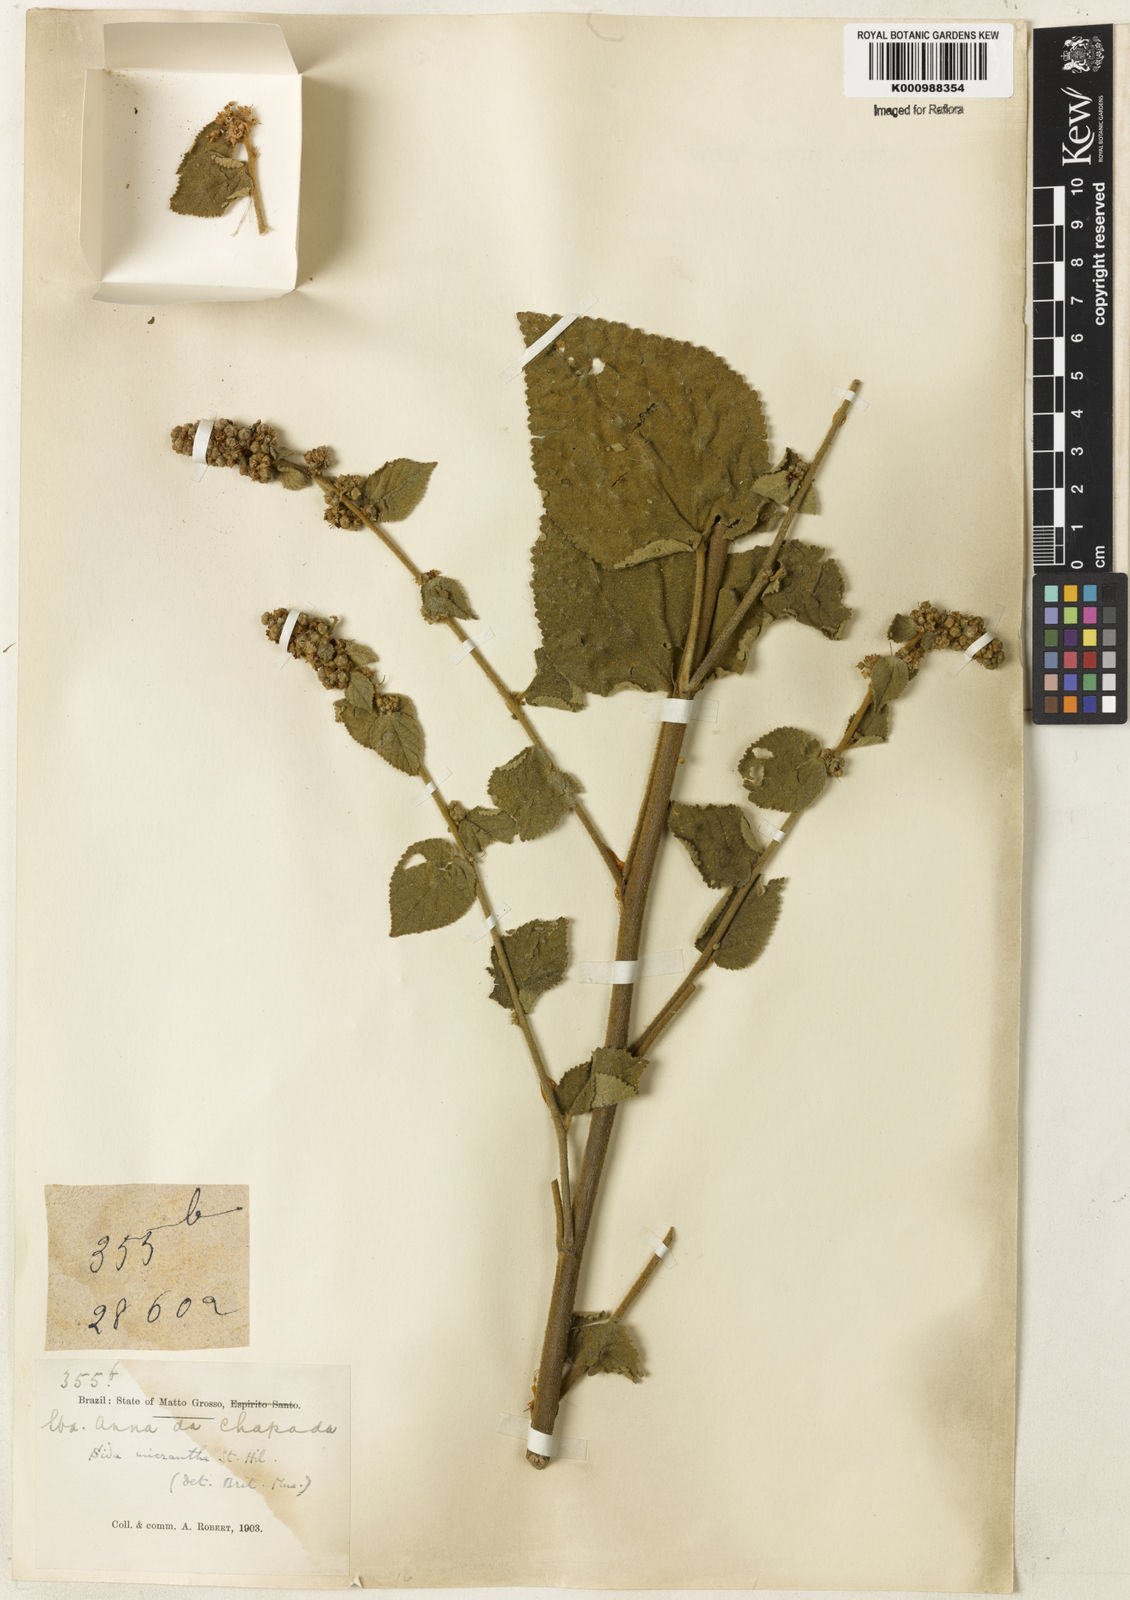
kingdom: Plantae
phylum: Tracheophyta
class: Magnoliopsida
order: Malvales
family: Malvaceae
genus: Sidastrum
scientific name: Sidastrum micranthum
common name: Dainty sandmallow
